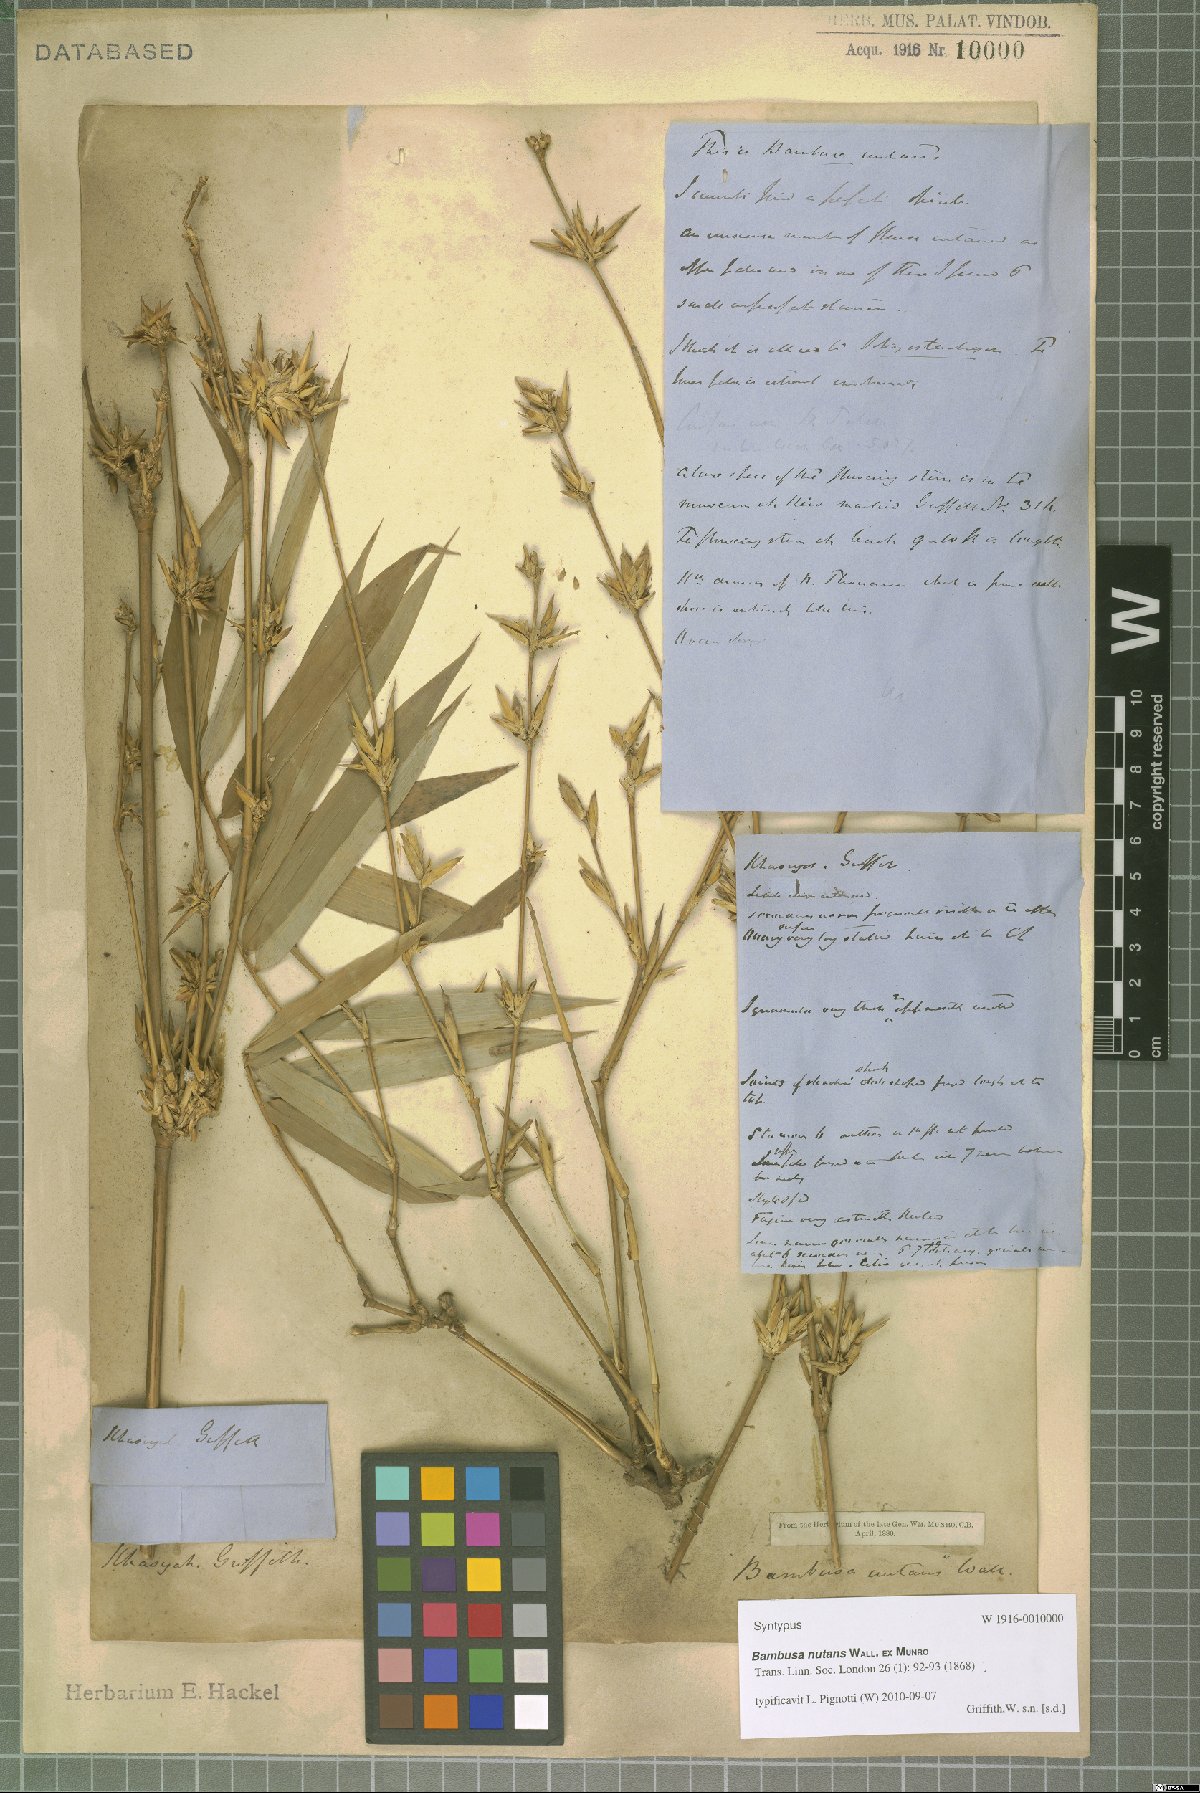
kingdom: Plantae
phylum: Tracheophyta
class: Liliopsida
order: Poales
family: Poaceae
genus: Bambusa
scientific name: Bambusa nutans
